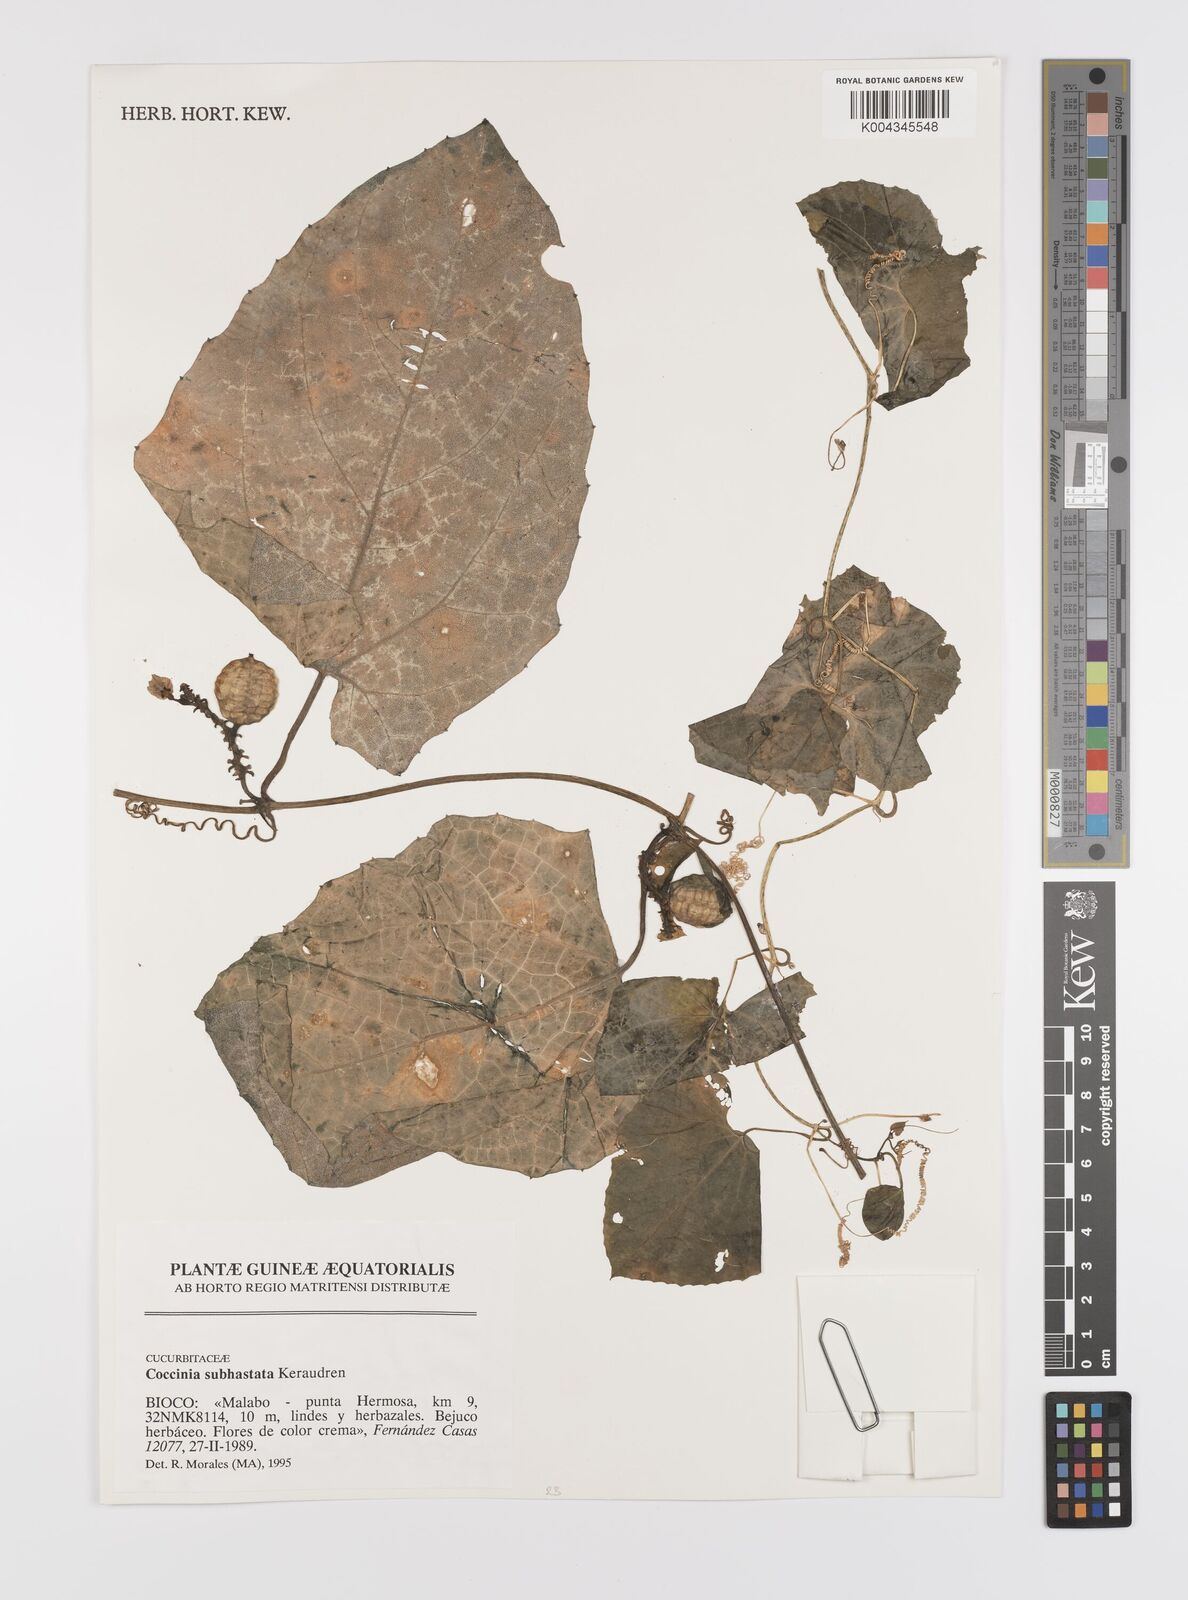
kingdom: Plantae
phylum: Tracheophyta
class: Magnoliopsida
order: Cucurbitales
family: Cucurbitaceae
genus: Coccinia
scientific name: Coccinia subhastata
